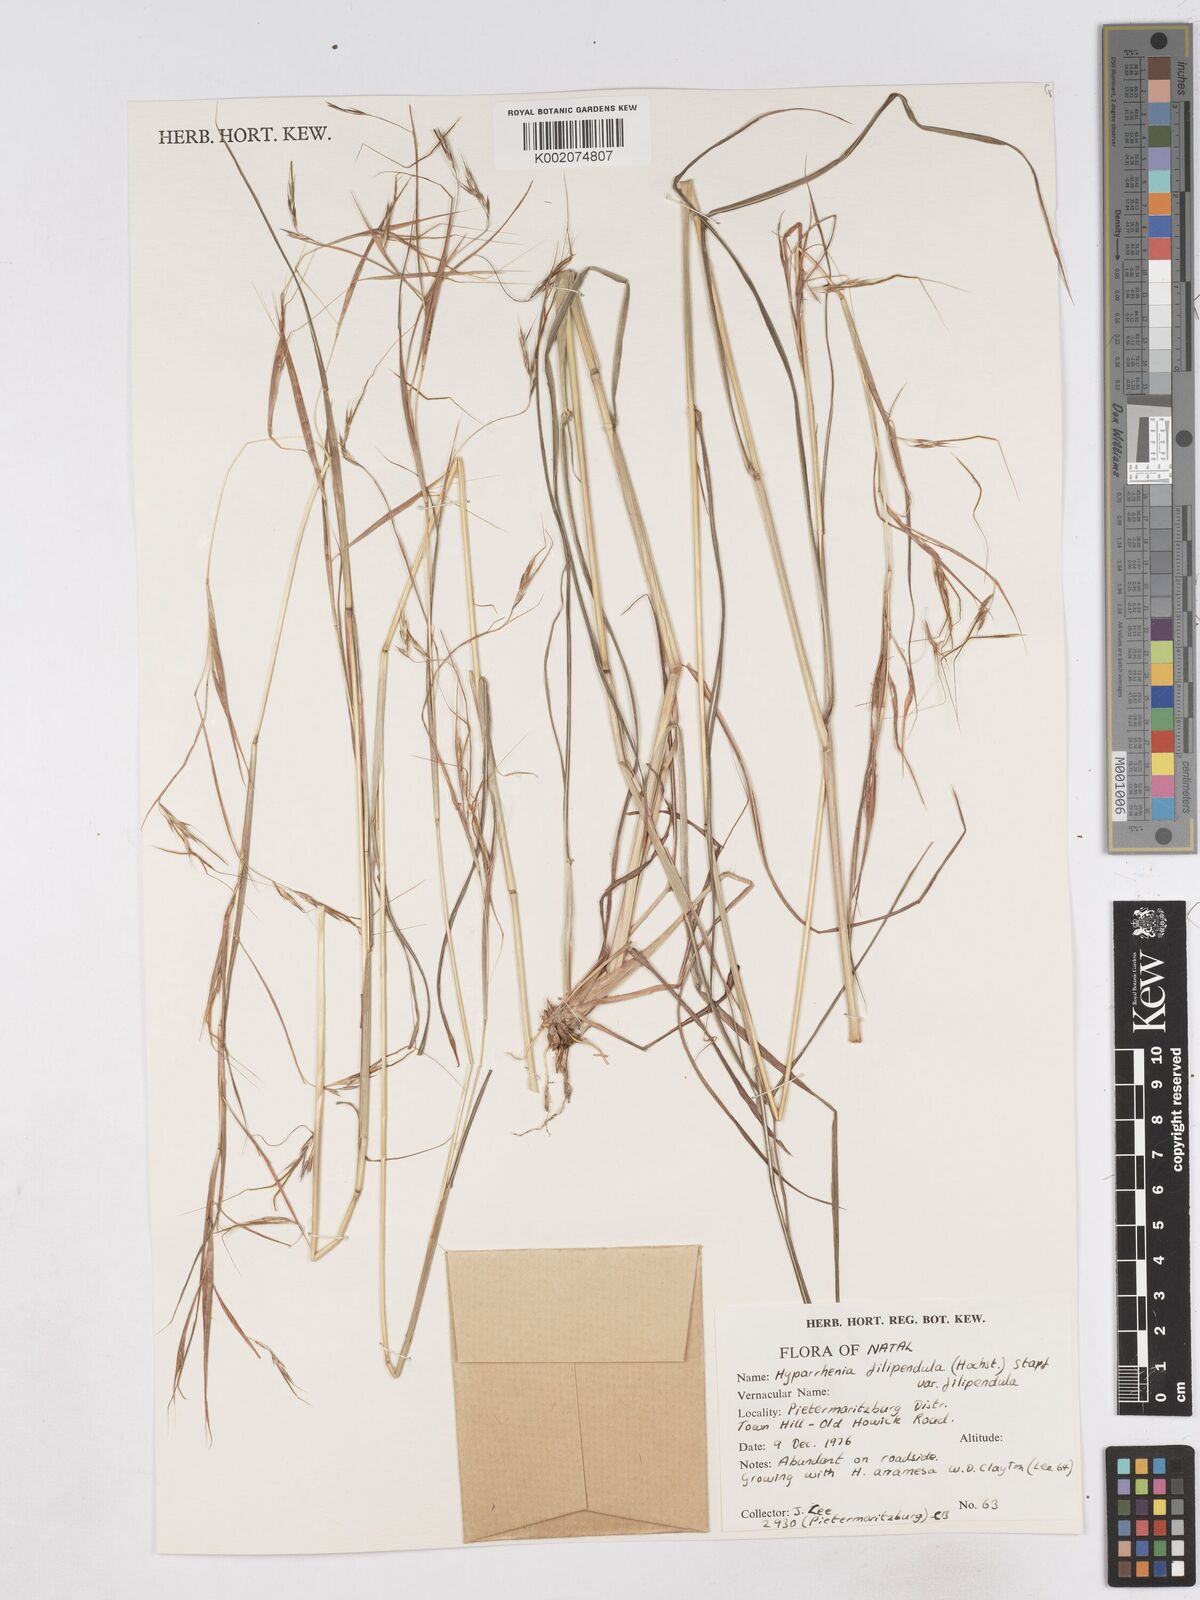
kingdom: Plantae
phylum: Tracheophyta
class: Liliopsida
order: Poales
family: Poaceae
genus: Hyparrhenia
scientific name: Hyparrhenia filipendula
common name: Tambookie grass
